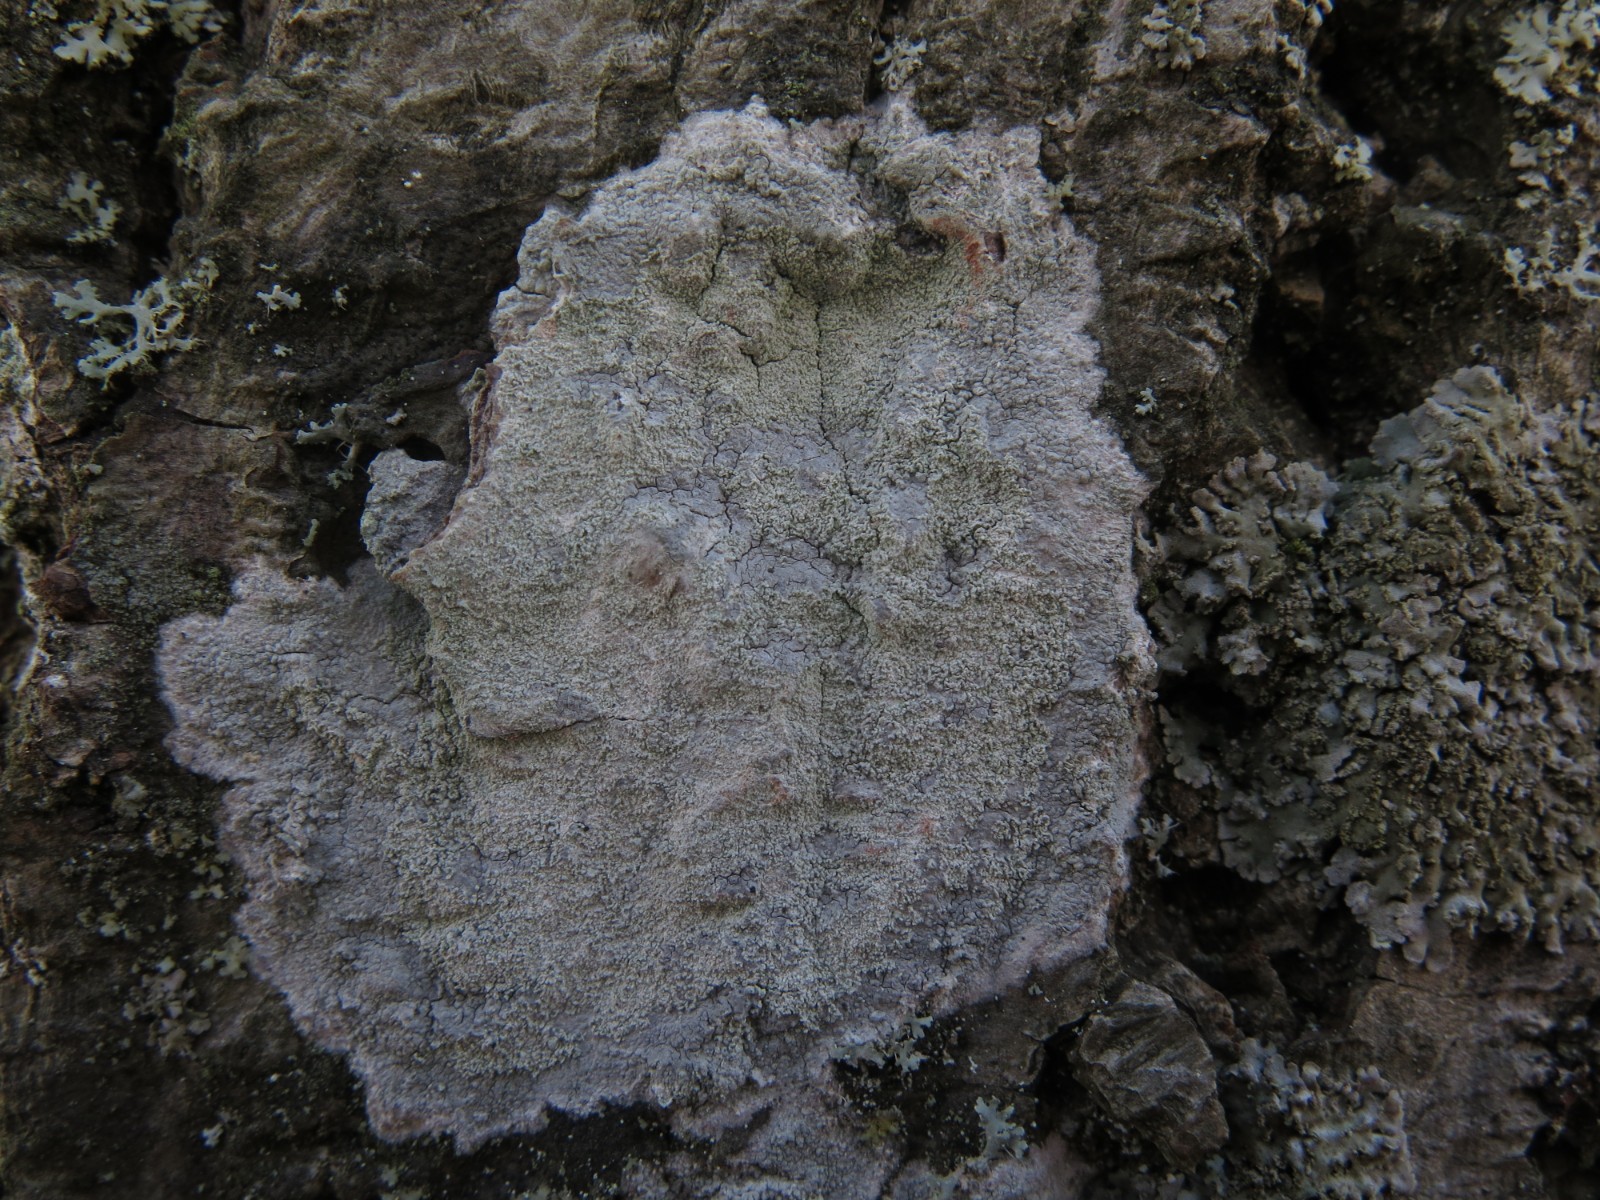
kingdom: Fungi
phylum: Ascomycota
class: Lecanoromycetes
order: Ostropales
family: Phlyctidaceae
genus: Phlyctis
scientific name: Phlyctis argena
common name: almindelig sølvlav
